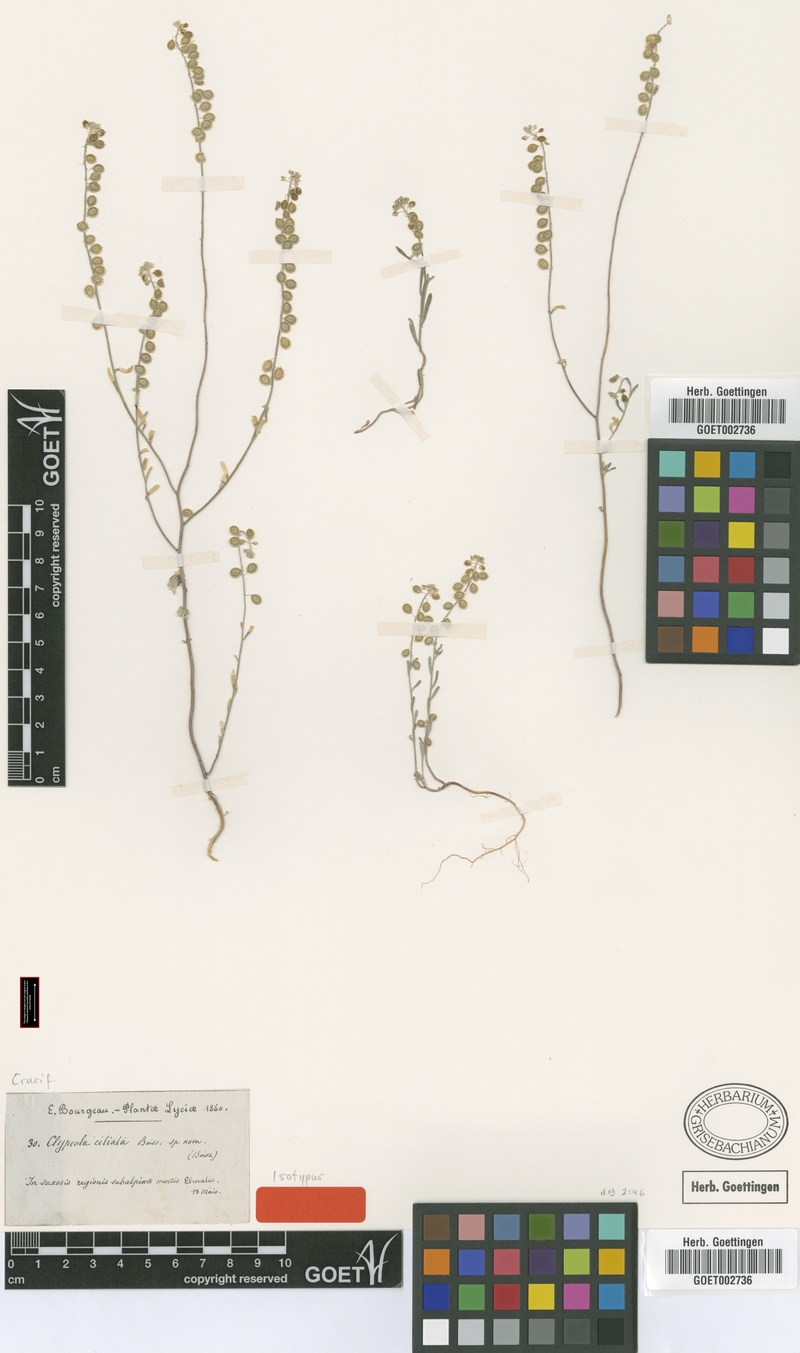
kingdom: Plantae
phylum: Tracheophyta
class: Magnoliopsida
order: Brassicales
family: Brassicaceae
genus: Clypeola
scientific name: Clypeola ciliata
